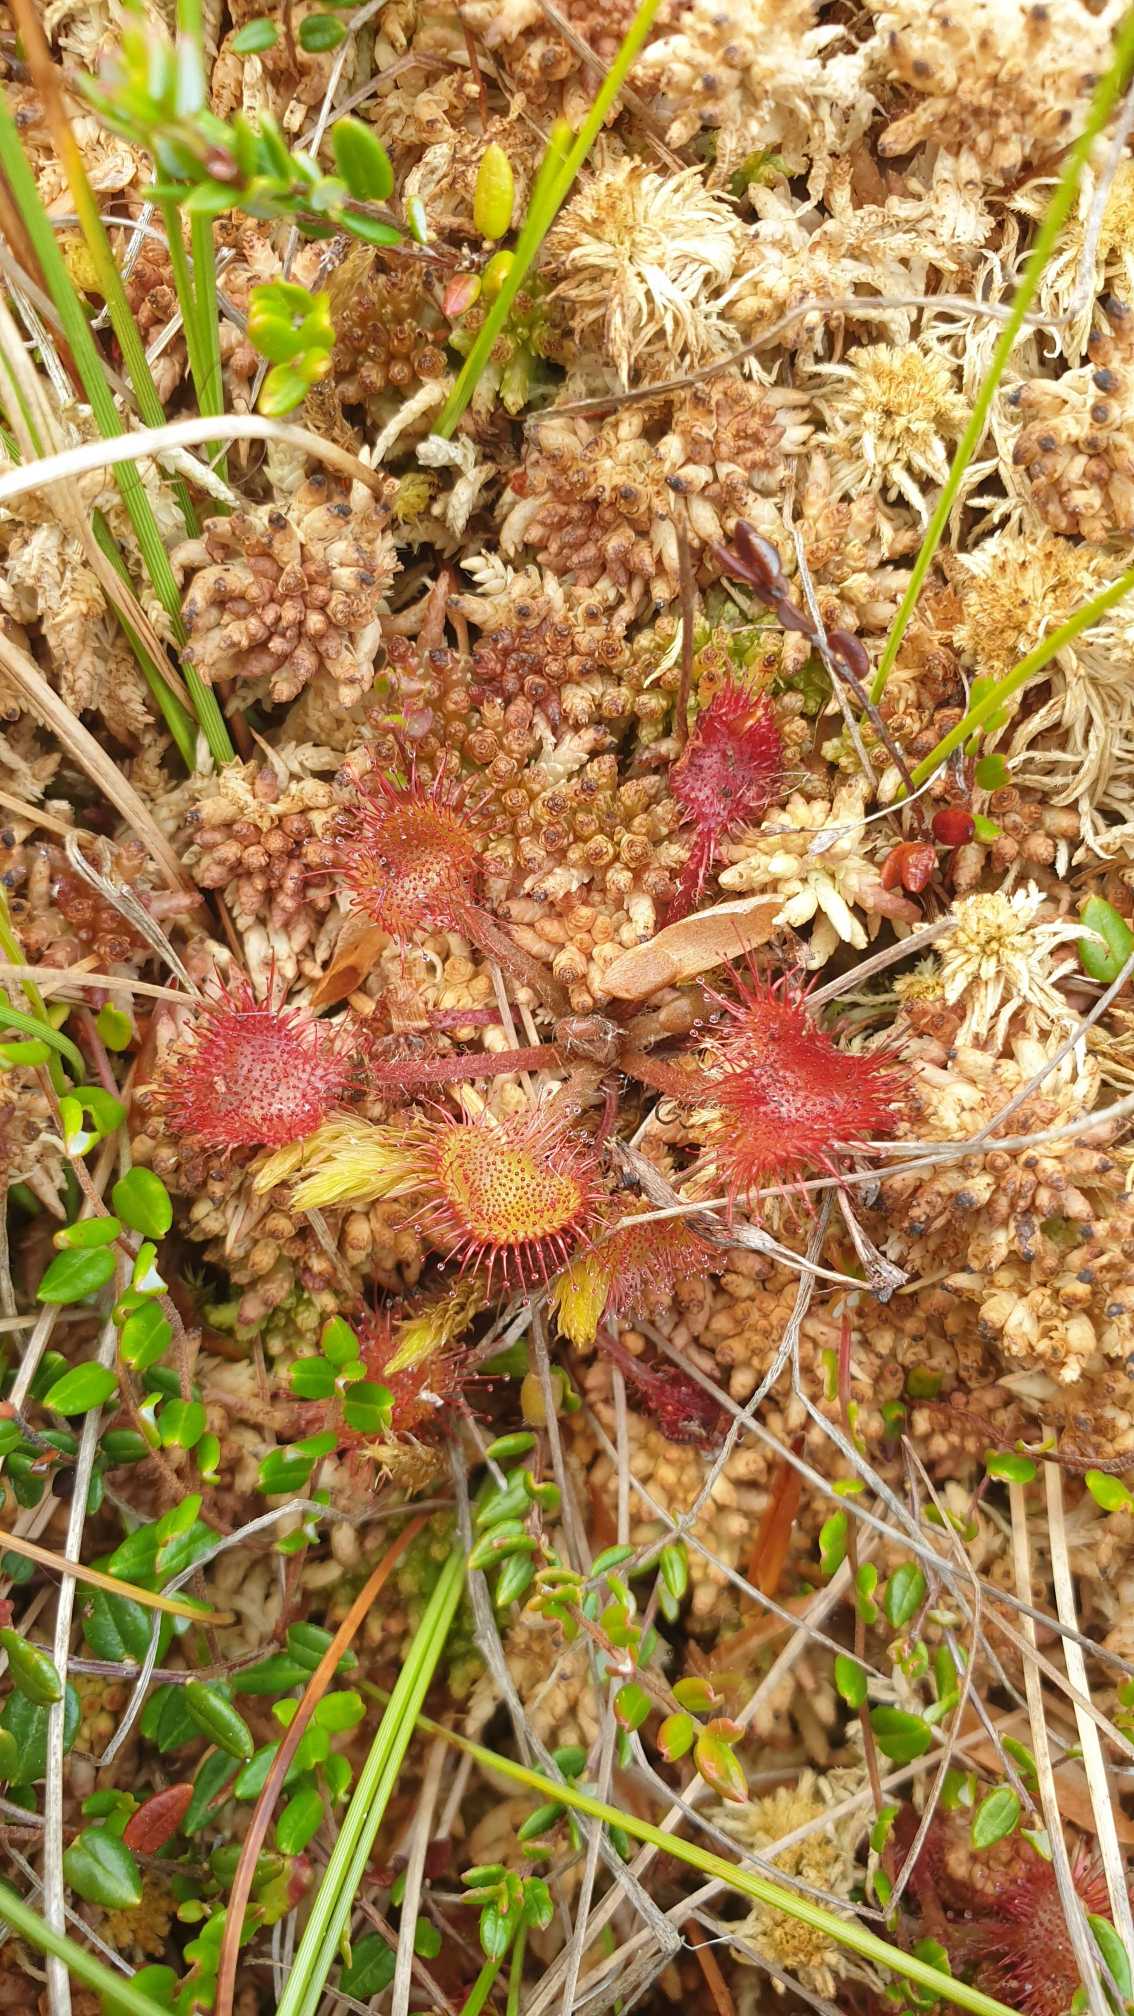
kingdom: Plantae
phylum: Tracheophyta
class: Magnoliopsida
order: Caryophyllales
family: Droseraceae
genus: Drosera
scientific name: Drosera rotundifolia
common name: Rundbladet soldug
